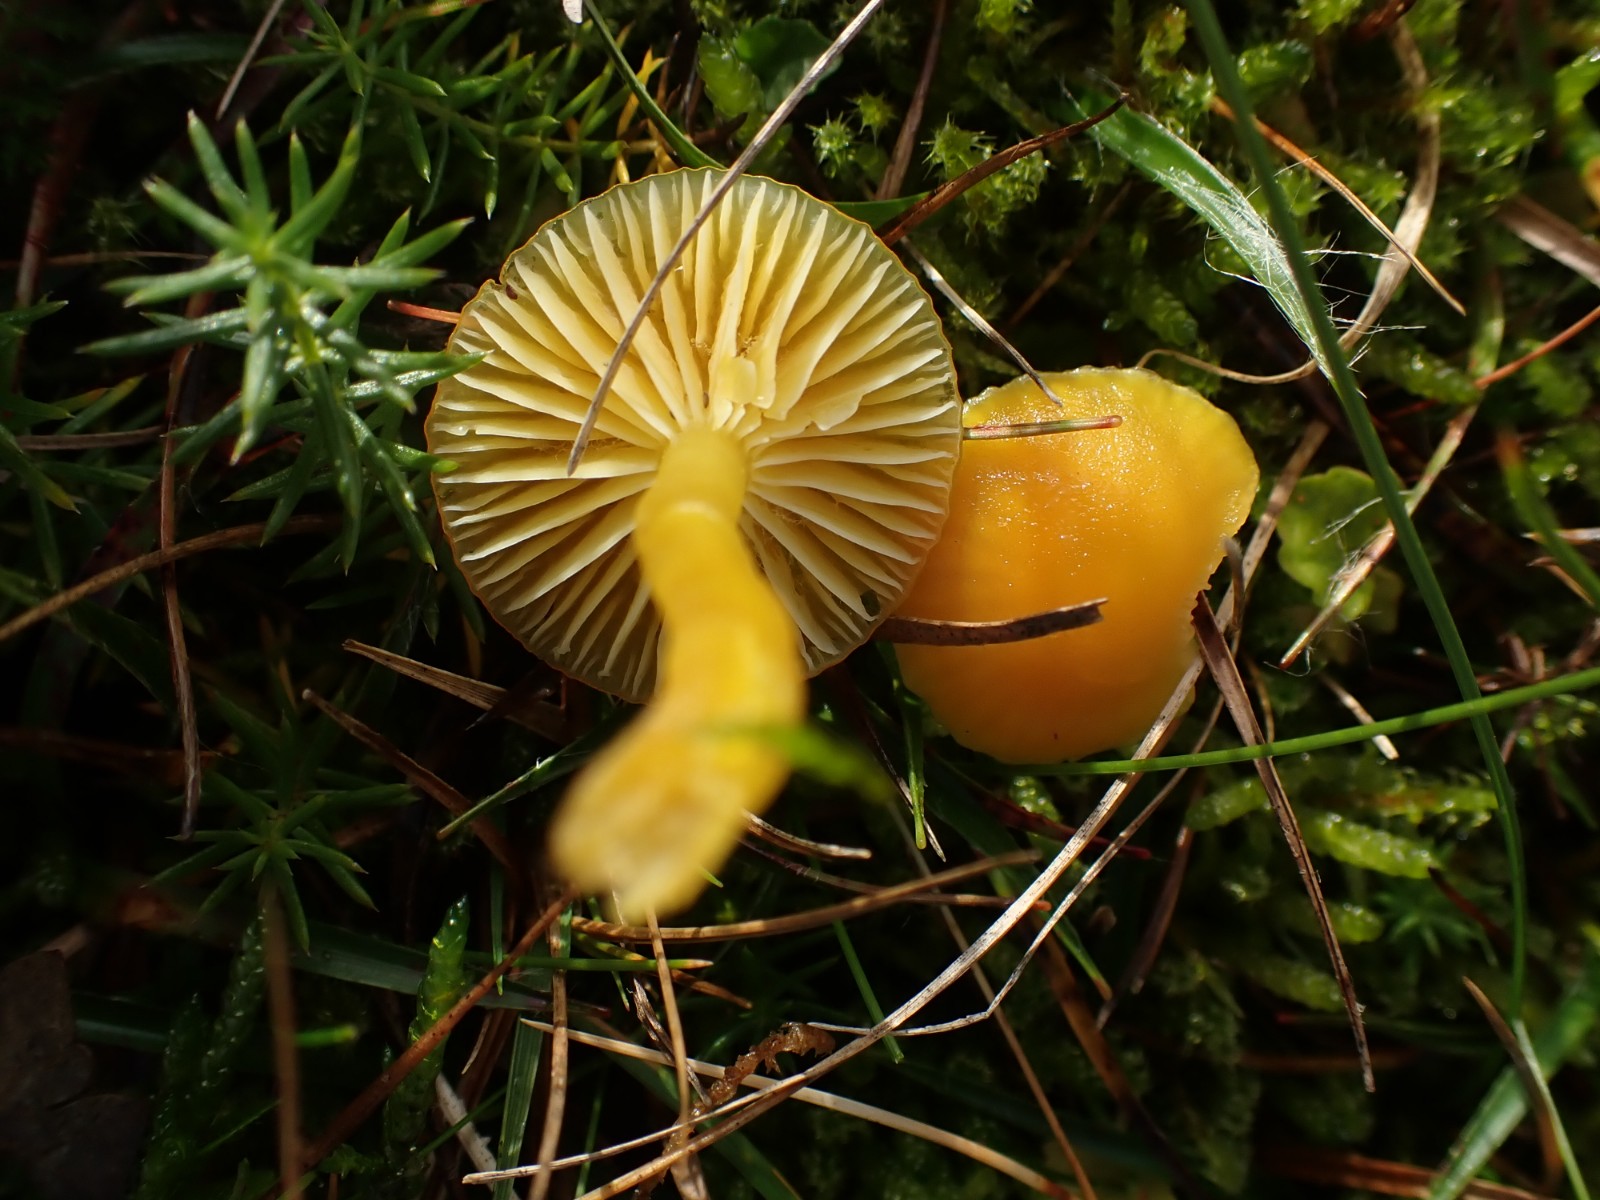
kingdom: Fungi
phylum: Basidiomycota
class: Agaricomycetes
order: Agaricales
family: Hygrophoraceae
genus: Hygrocybe
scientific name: Hygrocybe ceracea
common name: voksgul vokshat
